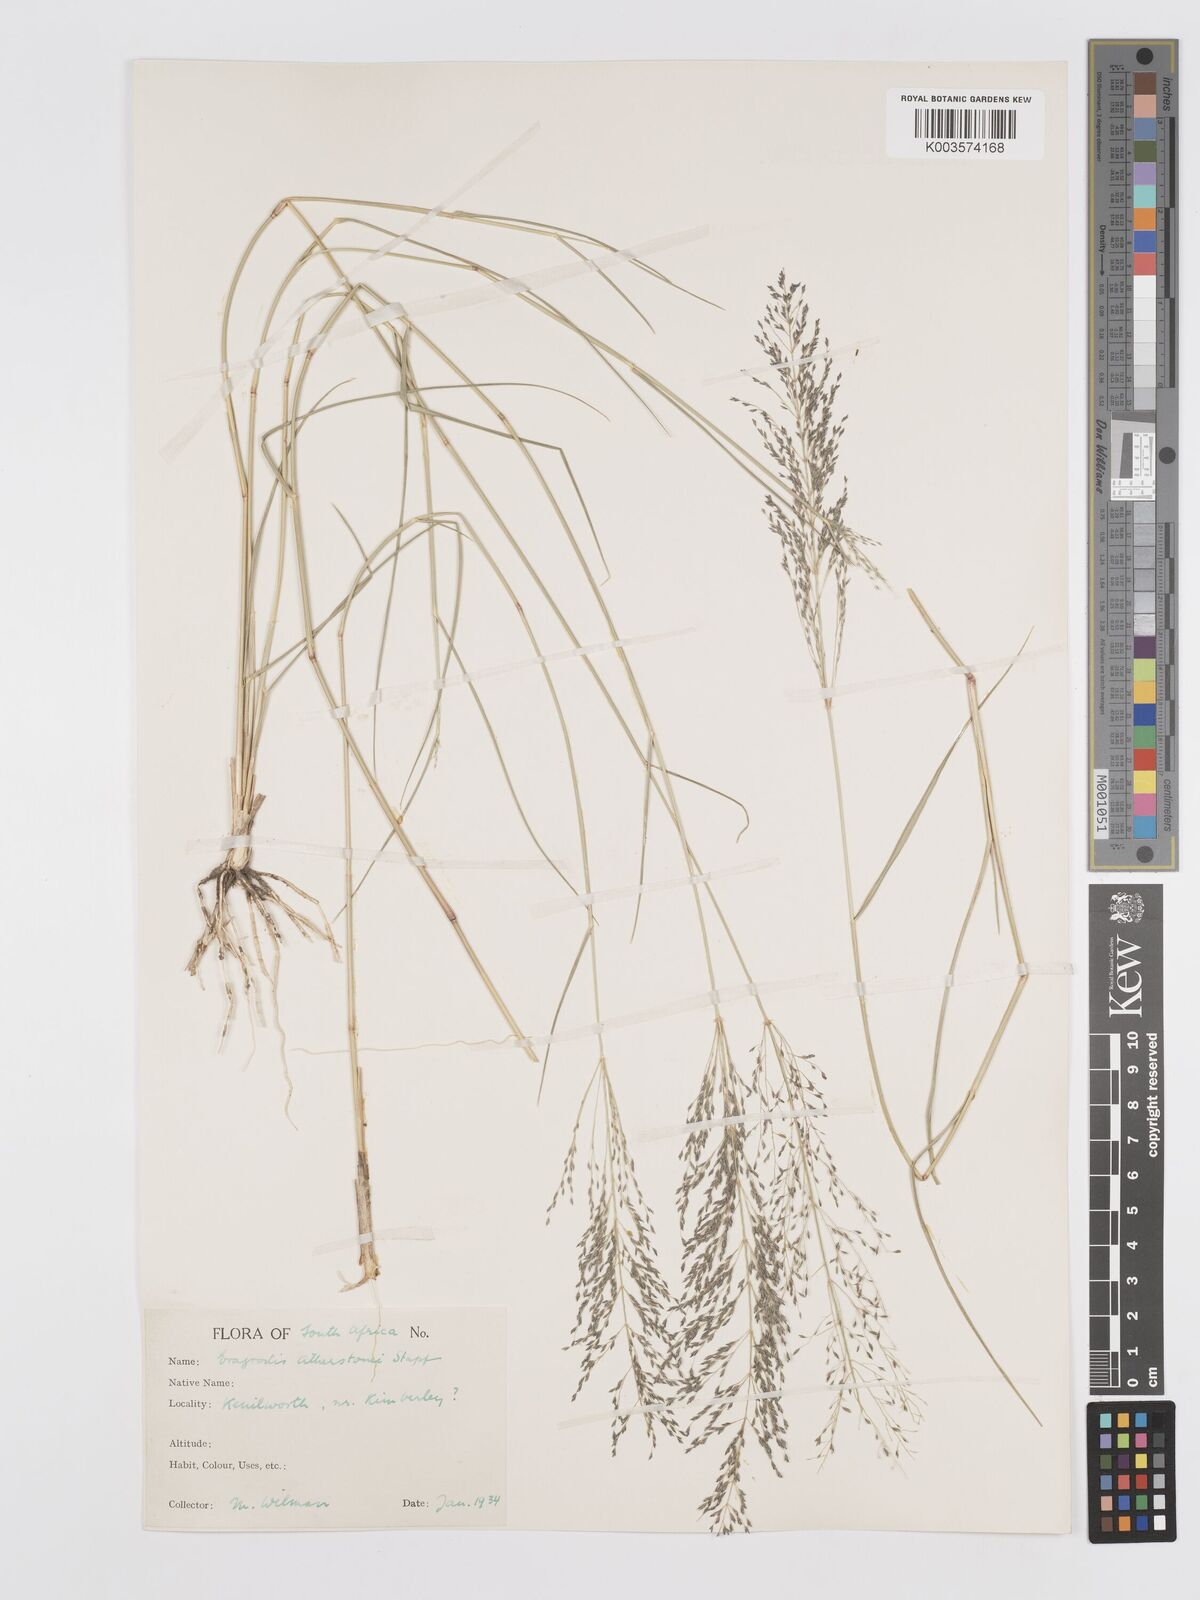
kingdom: Plantae
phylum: Tracheophyta
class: Liliopsida
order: Poales
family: Poaceae
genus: Eragrostis
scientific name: Eragrostis cylindriflora
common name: Cylinderflower lovegrass
